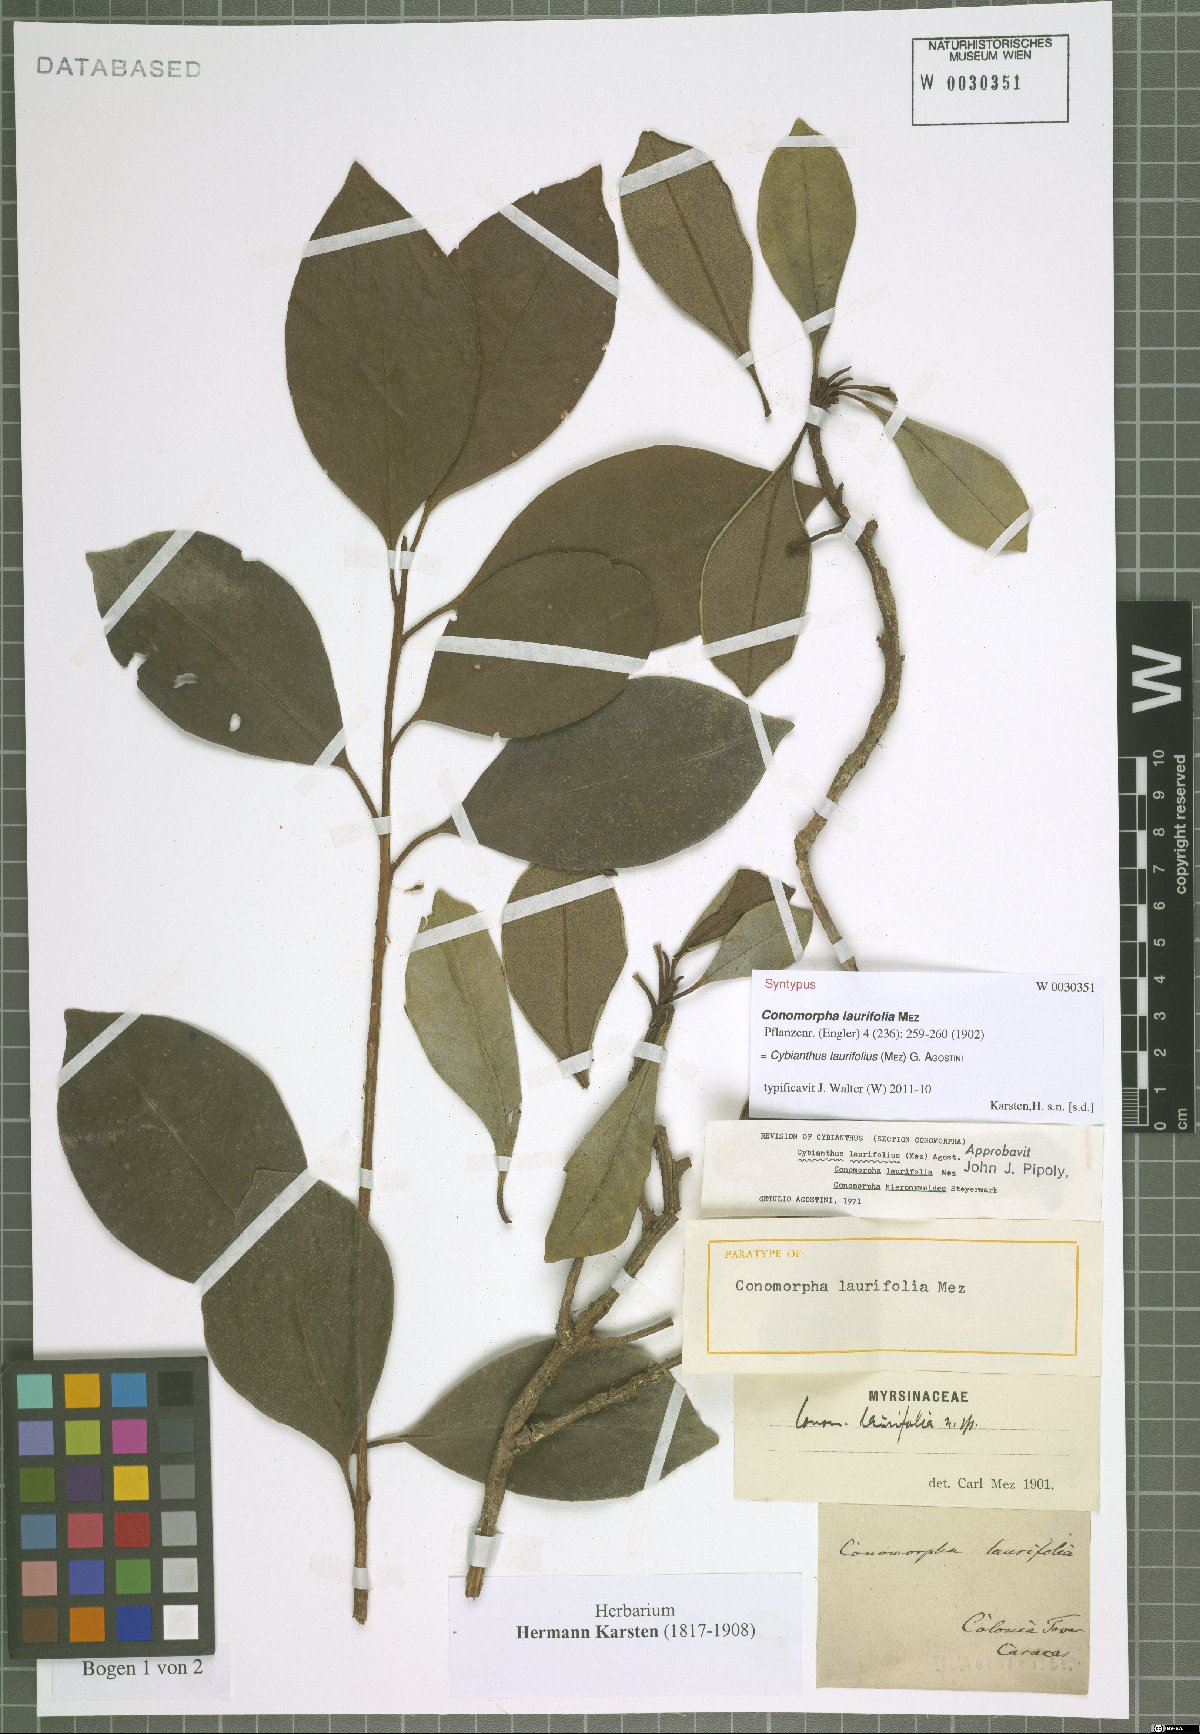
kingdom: Plantae
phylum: Tracheophyta
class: Magnoliopsida
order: Ericales
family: Primulaceae
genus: Cybianthus
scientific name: Cybianthus laurifolius
